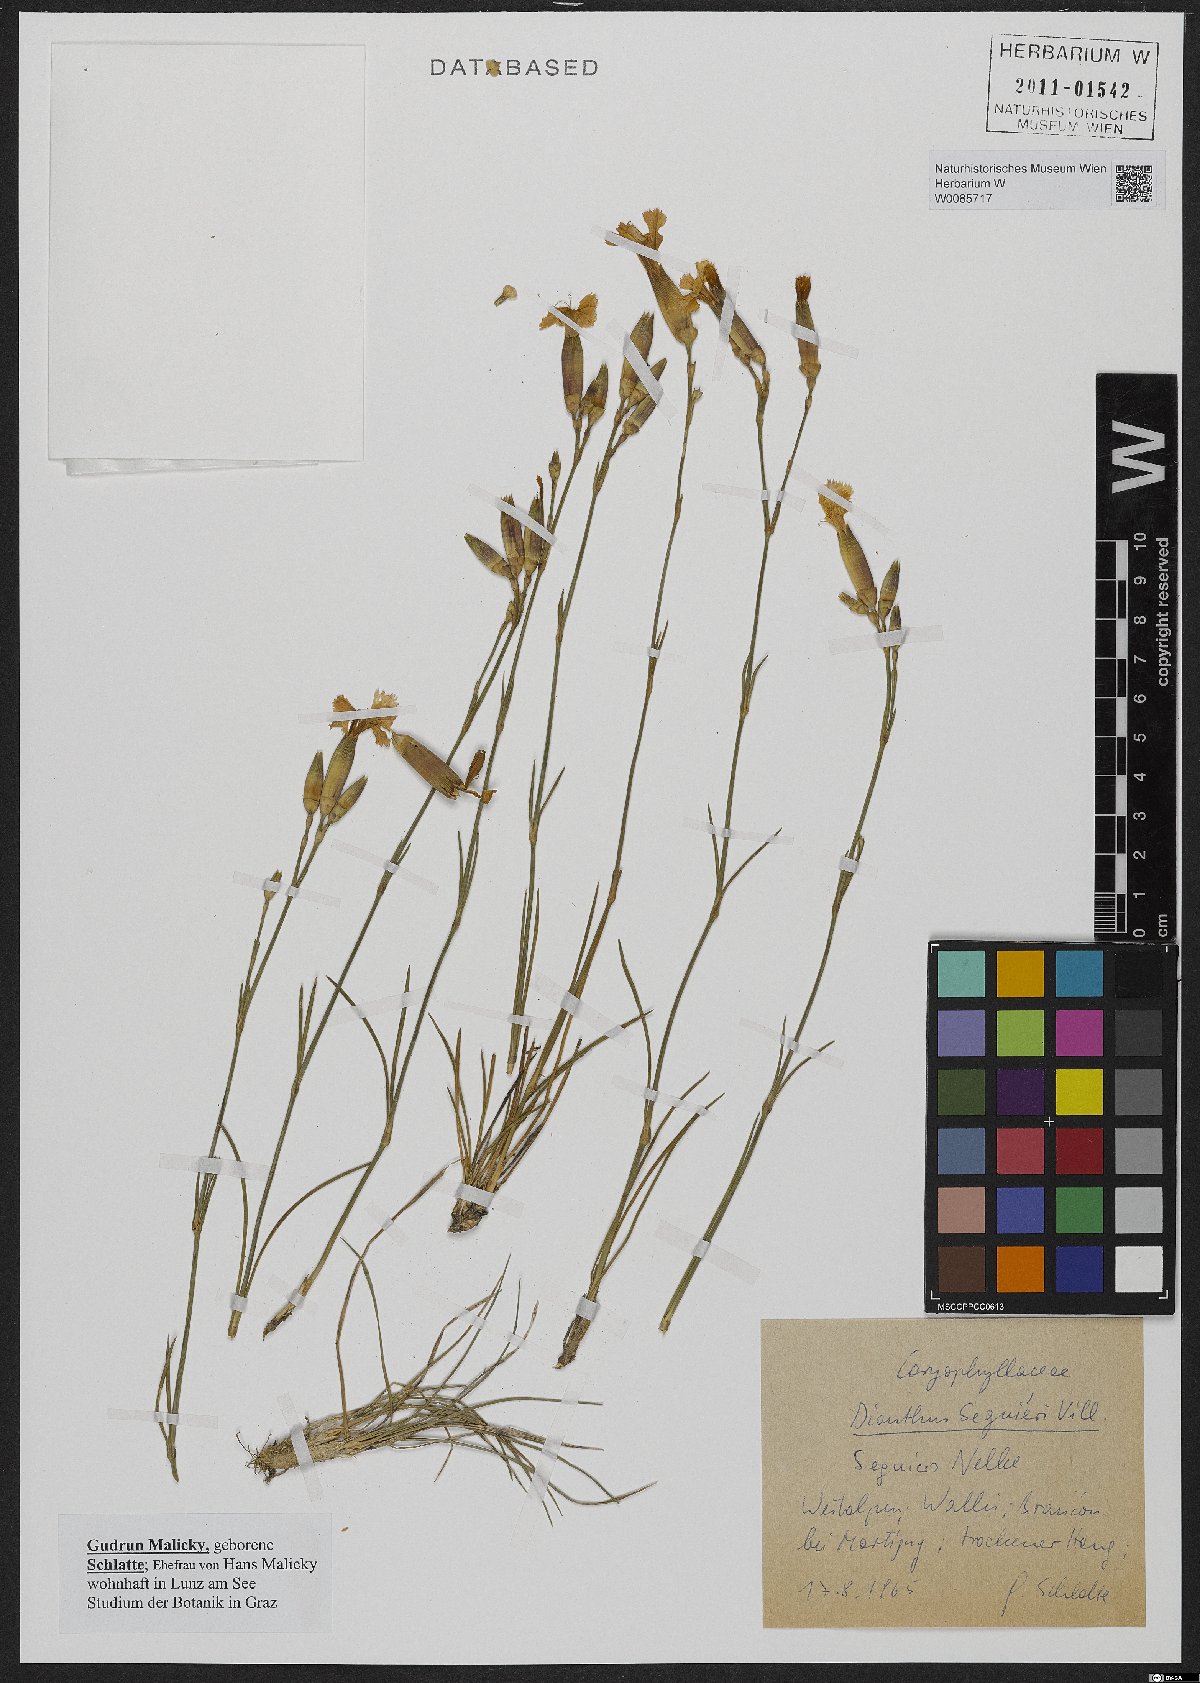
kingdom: Plantae
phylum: Tracheophyta
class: Magnoliopsida
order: Caryophyllales
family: Caryophyllaceae
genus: Dianthus
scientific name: Dianthus seguieri
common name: Ragged pink
